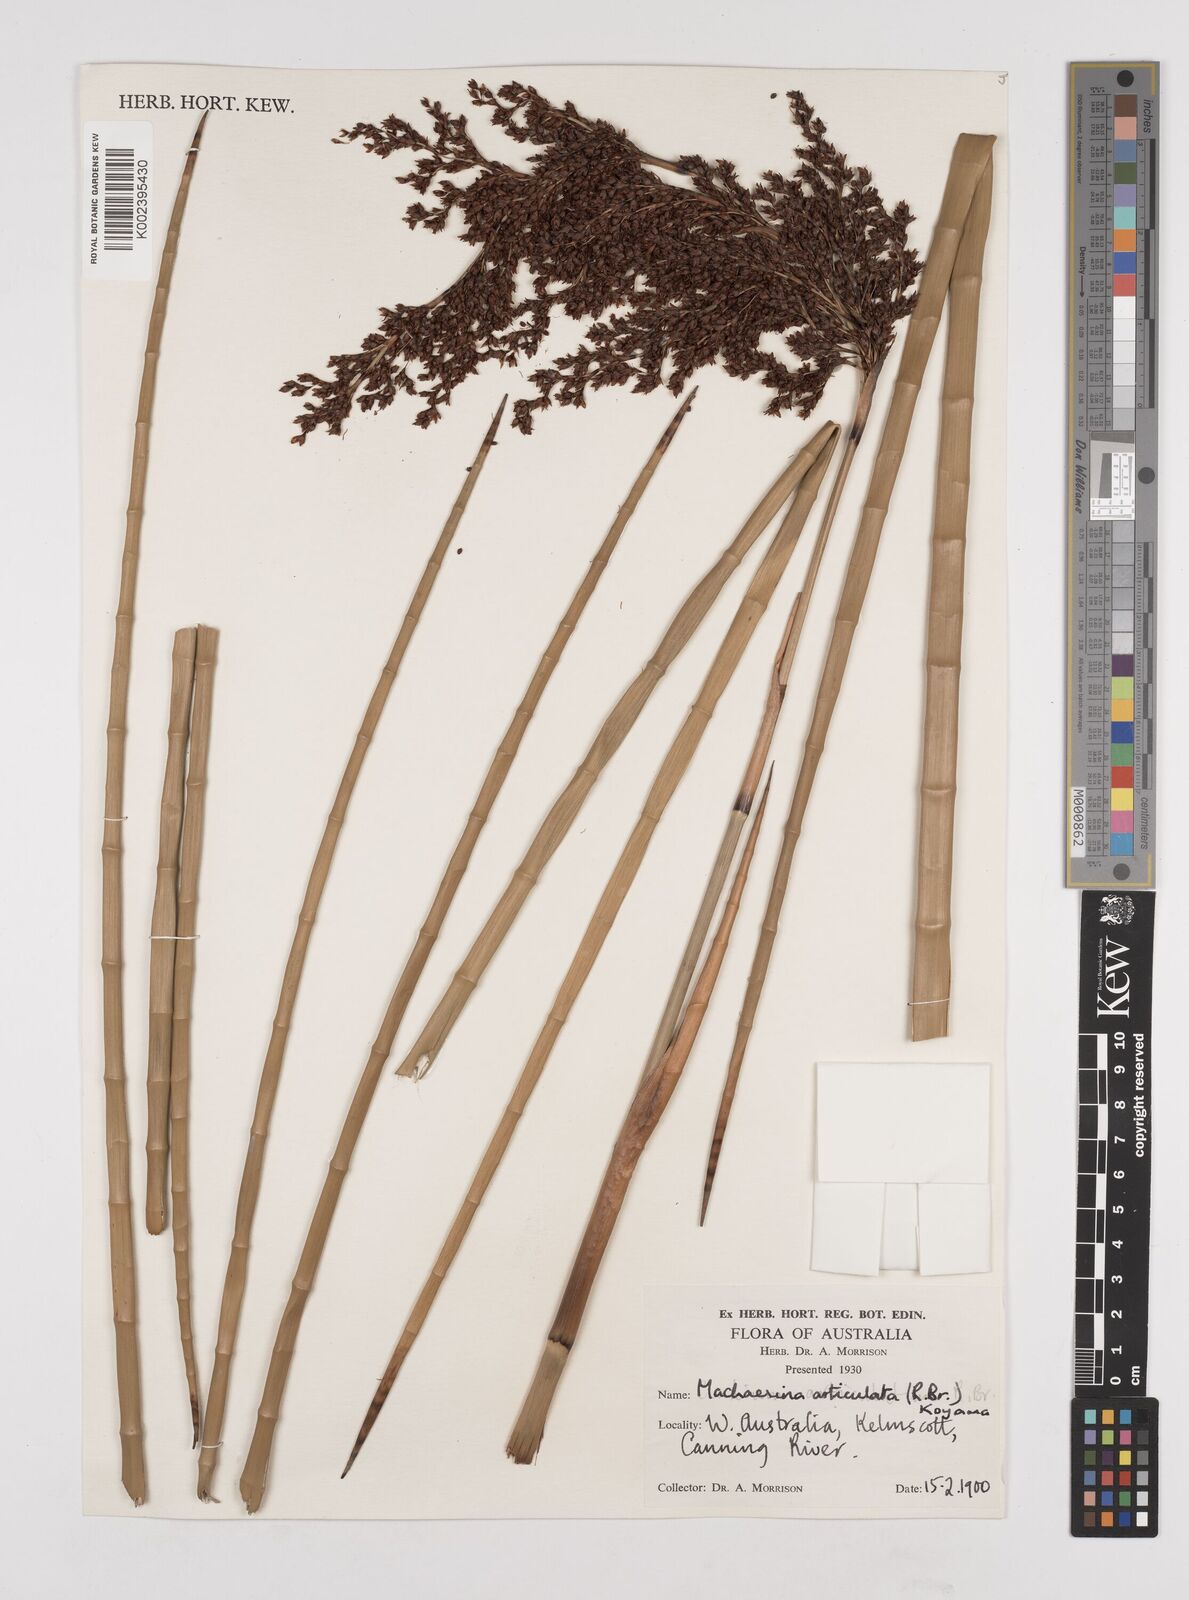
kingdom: Plantae
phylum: Tracheophyta
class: Liliopsida
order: Poales
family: Cyperaceae
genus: Machaerina
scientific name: Machaerina articulata
